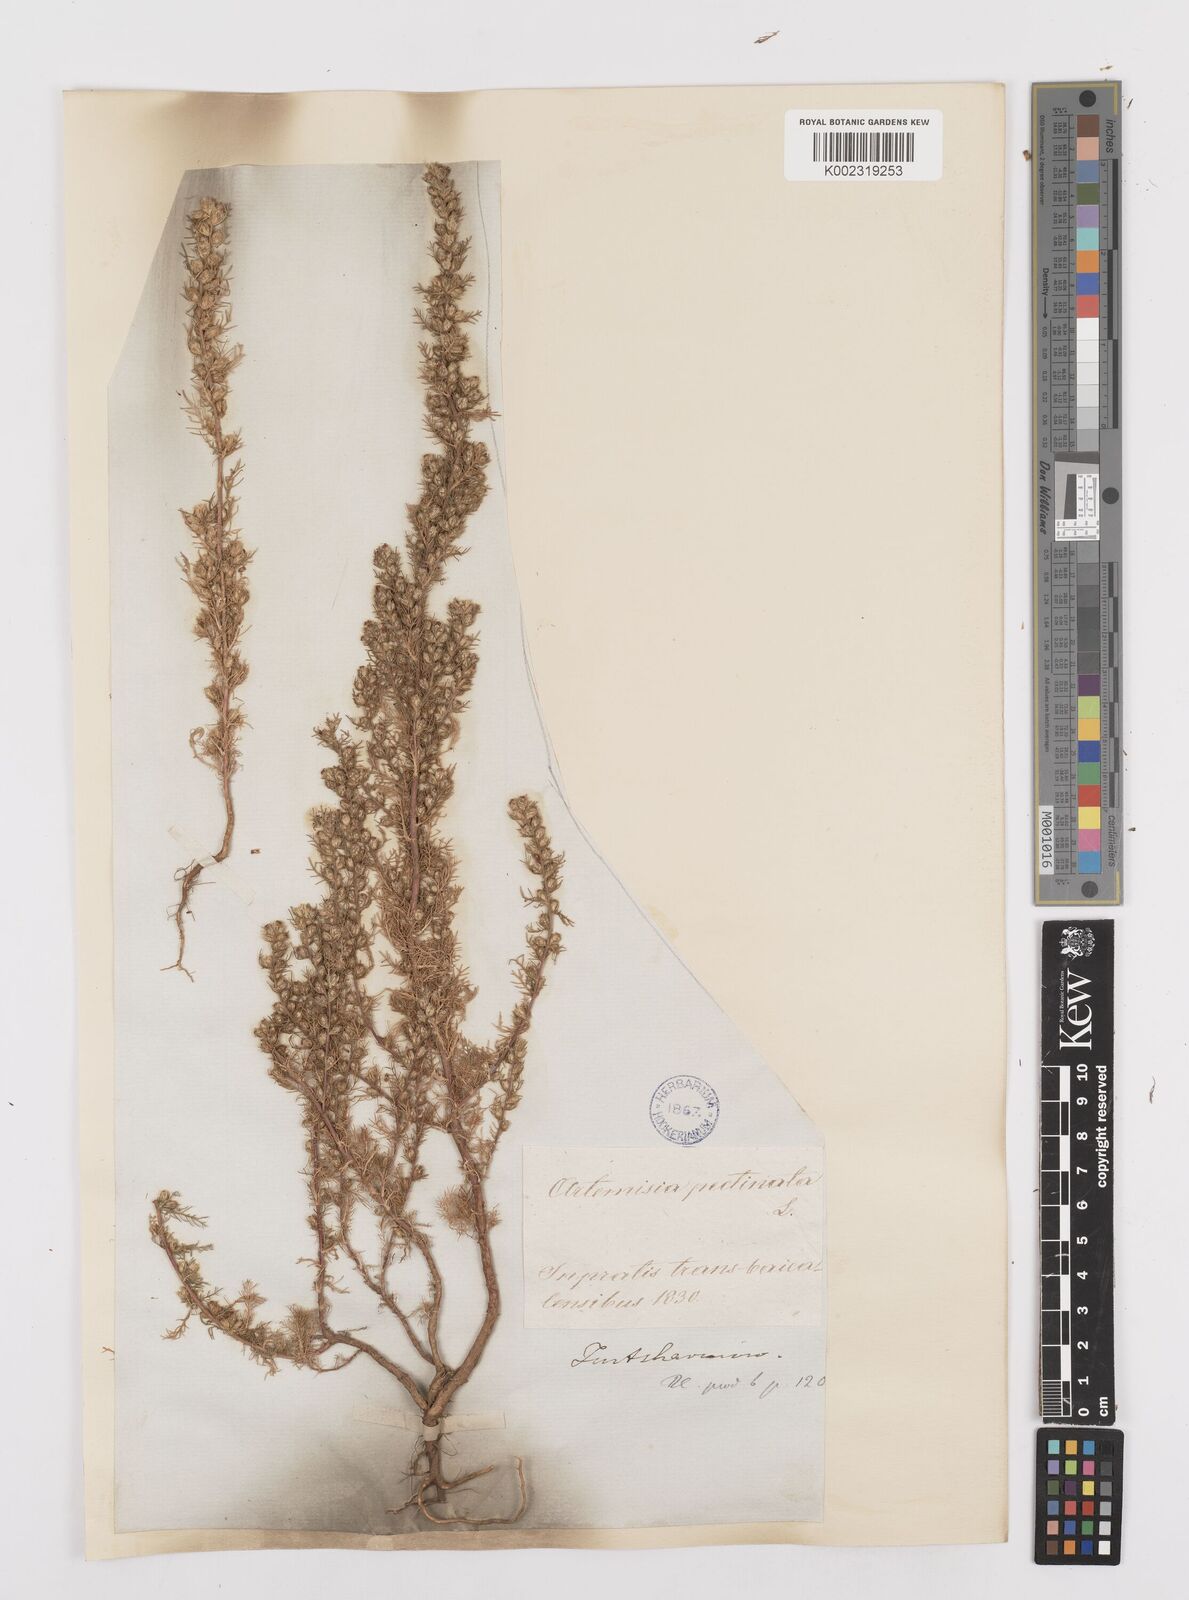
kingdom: Plantae
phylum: Tracheophyta
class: Magnoliopsida
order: Asterales
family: Asteraceae
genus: Neopallasia
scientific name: Neopallasia pectinata
